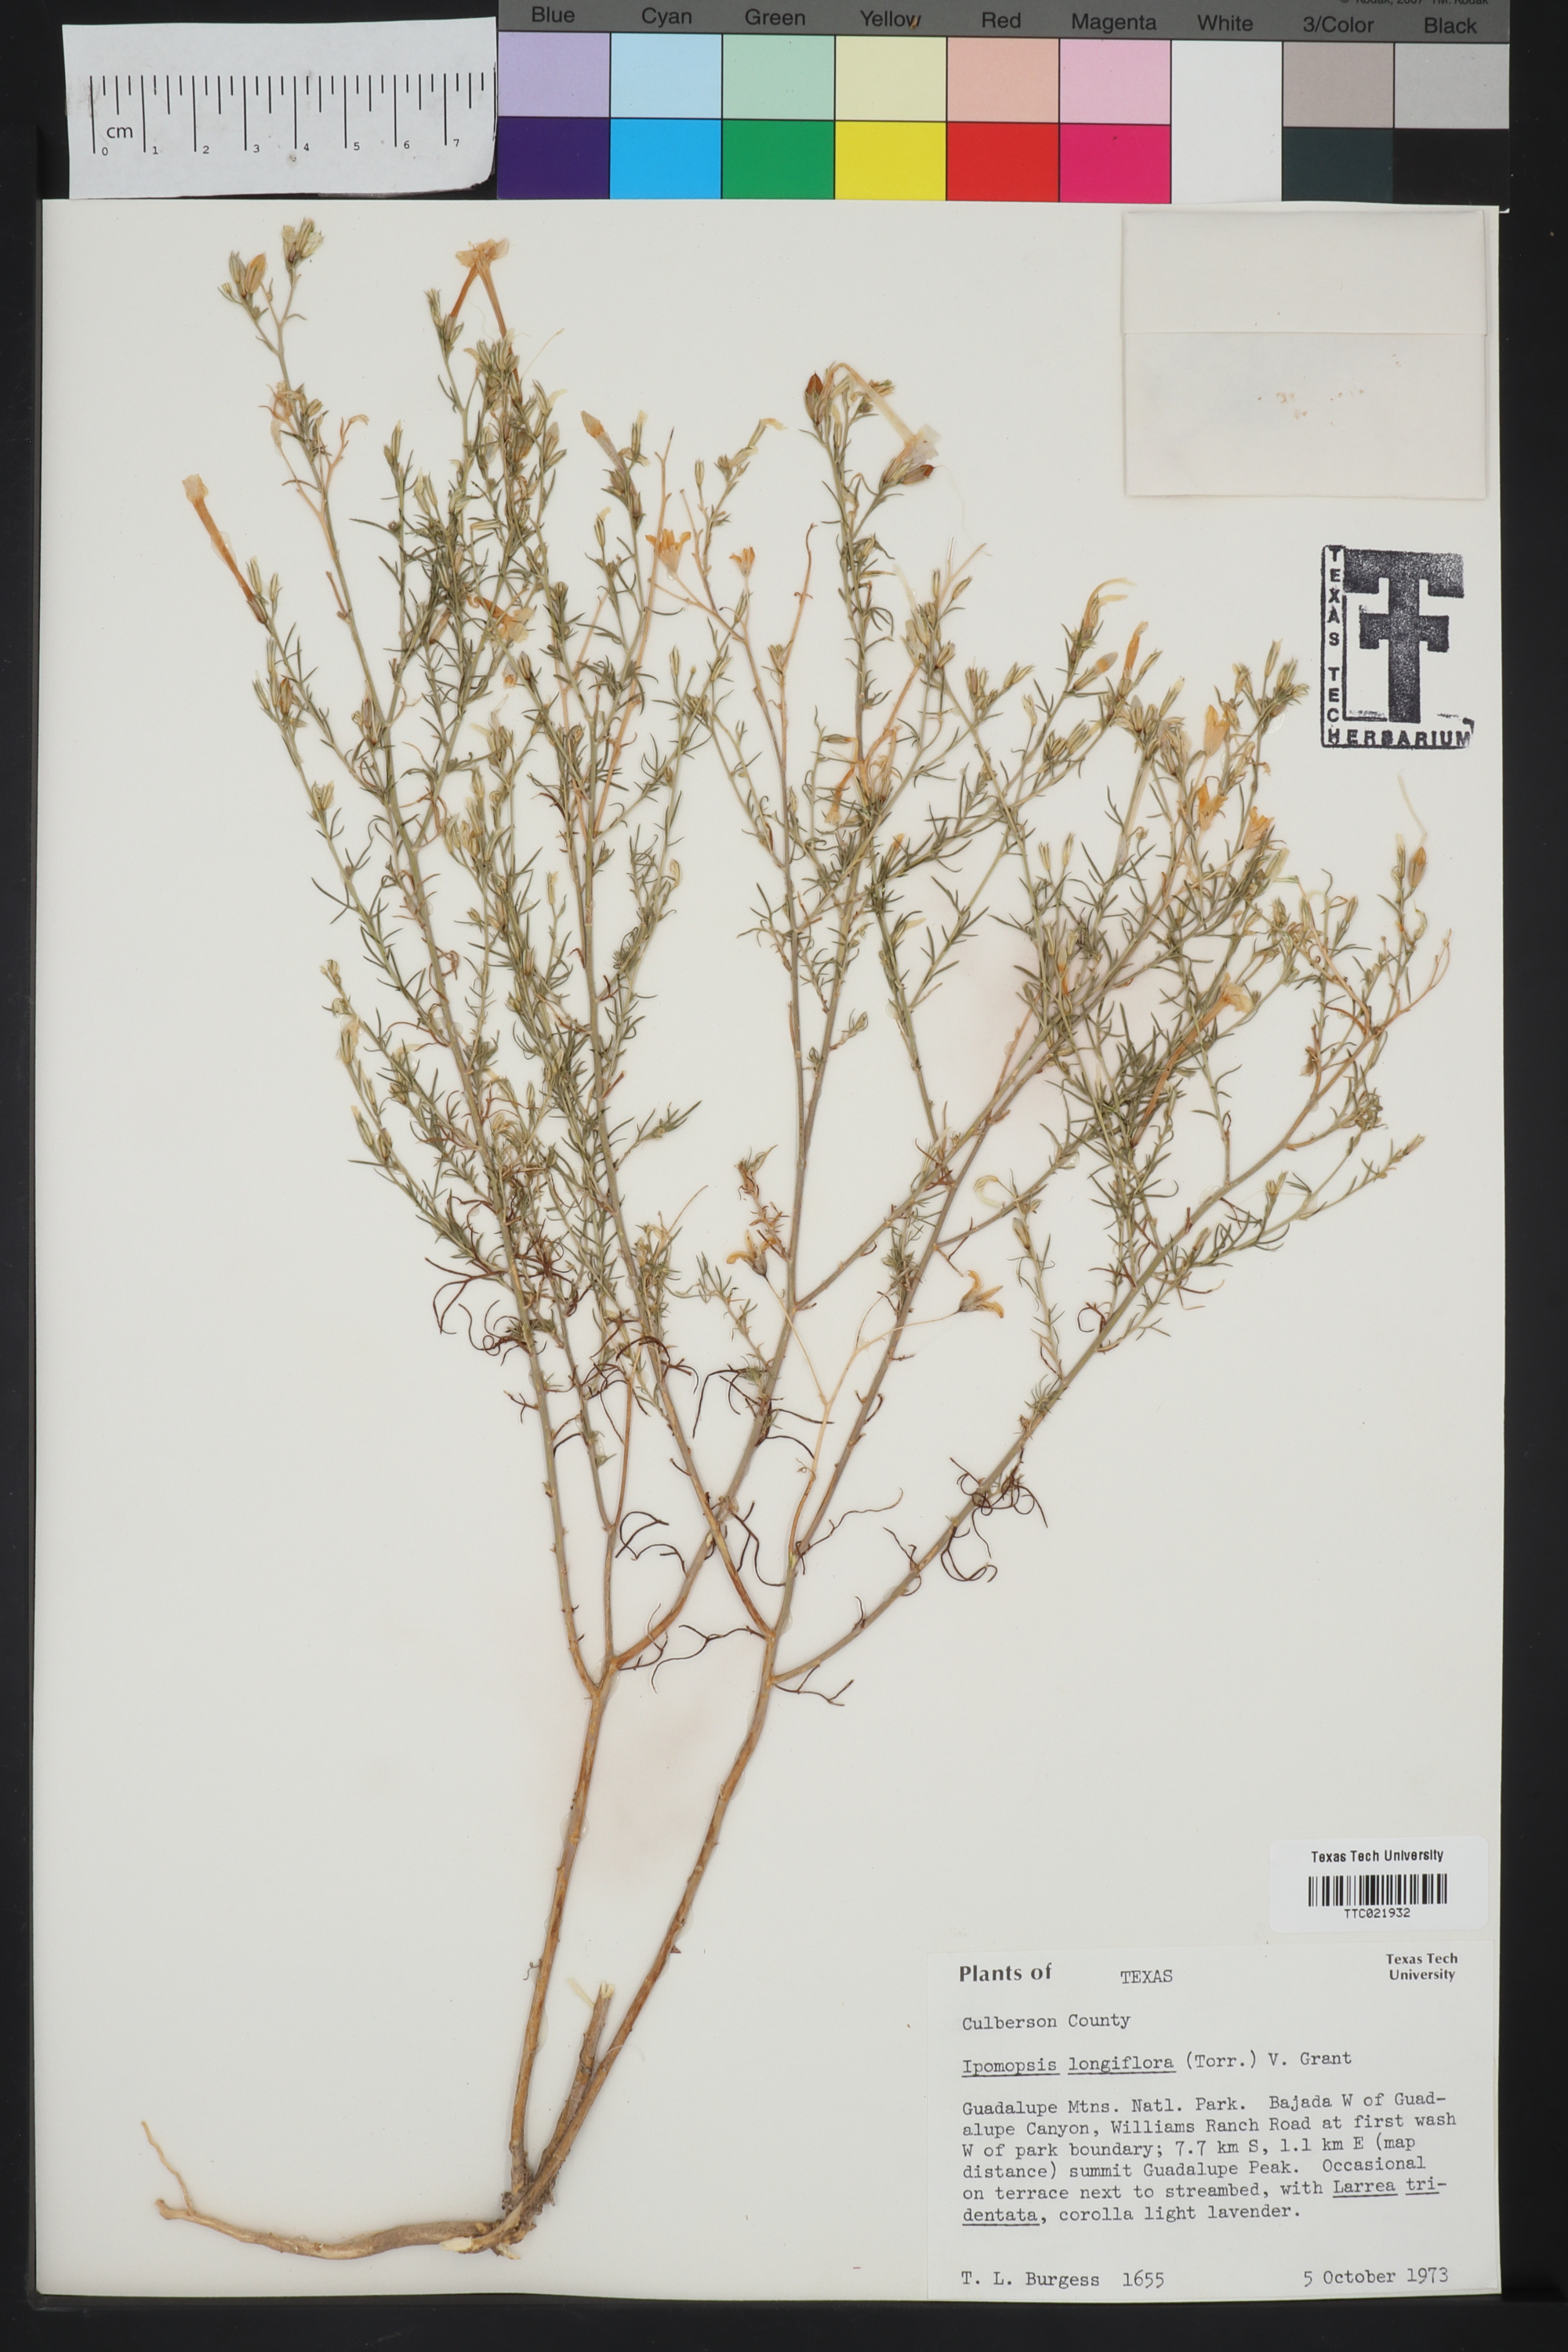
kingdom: Plantae
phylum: Tracheophyta
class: Magnoliopsida
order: Ericales
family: Polemoniaceae
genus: Ipomopsis
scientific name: Ipomopsis longiflora
